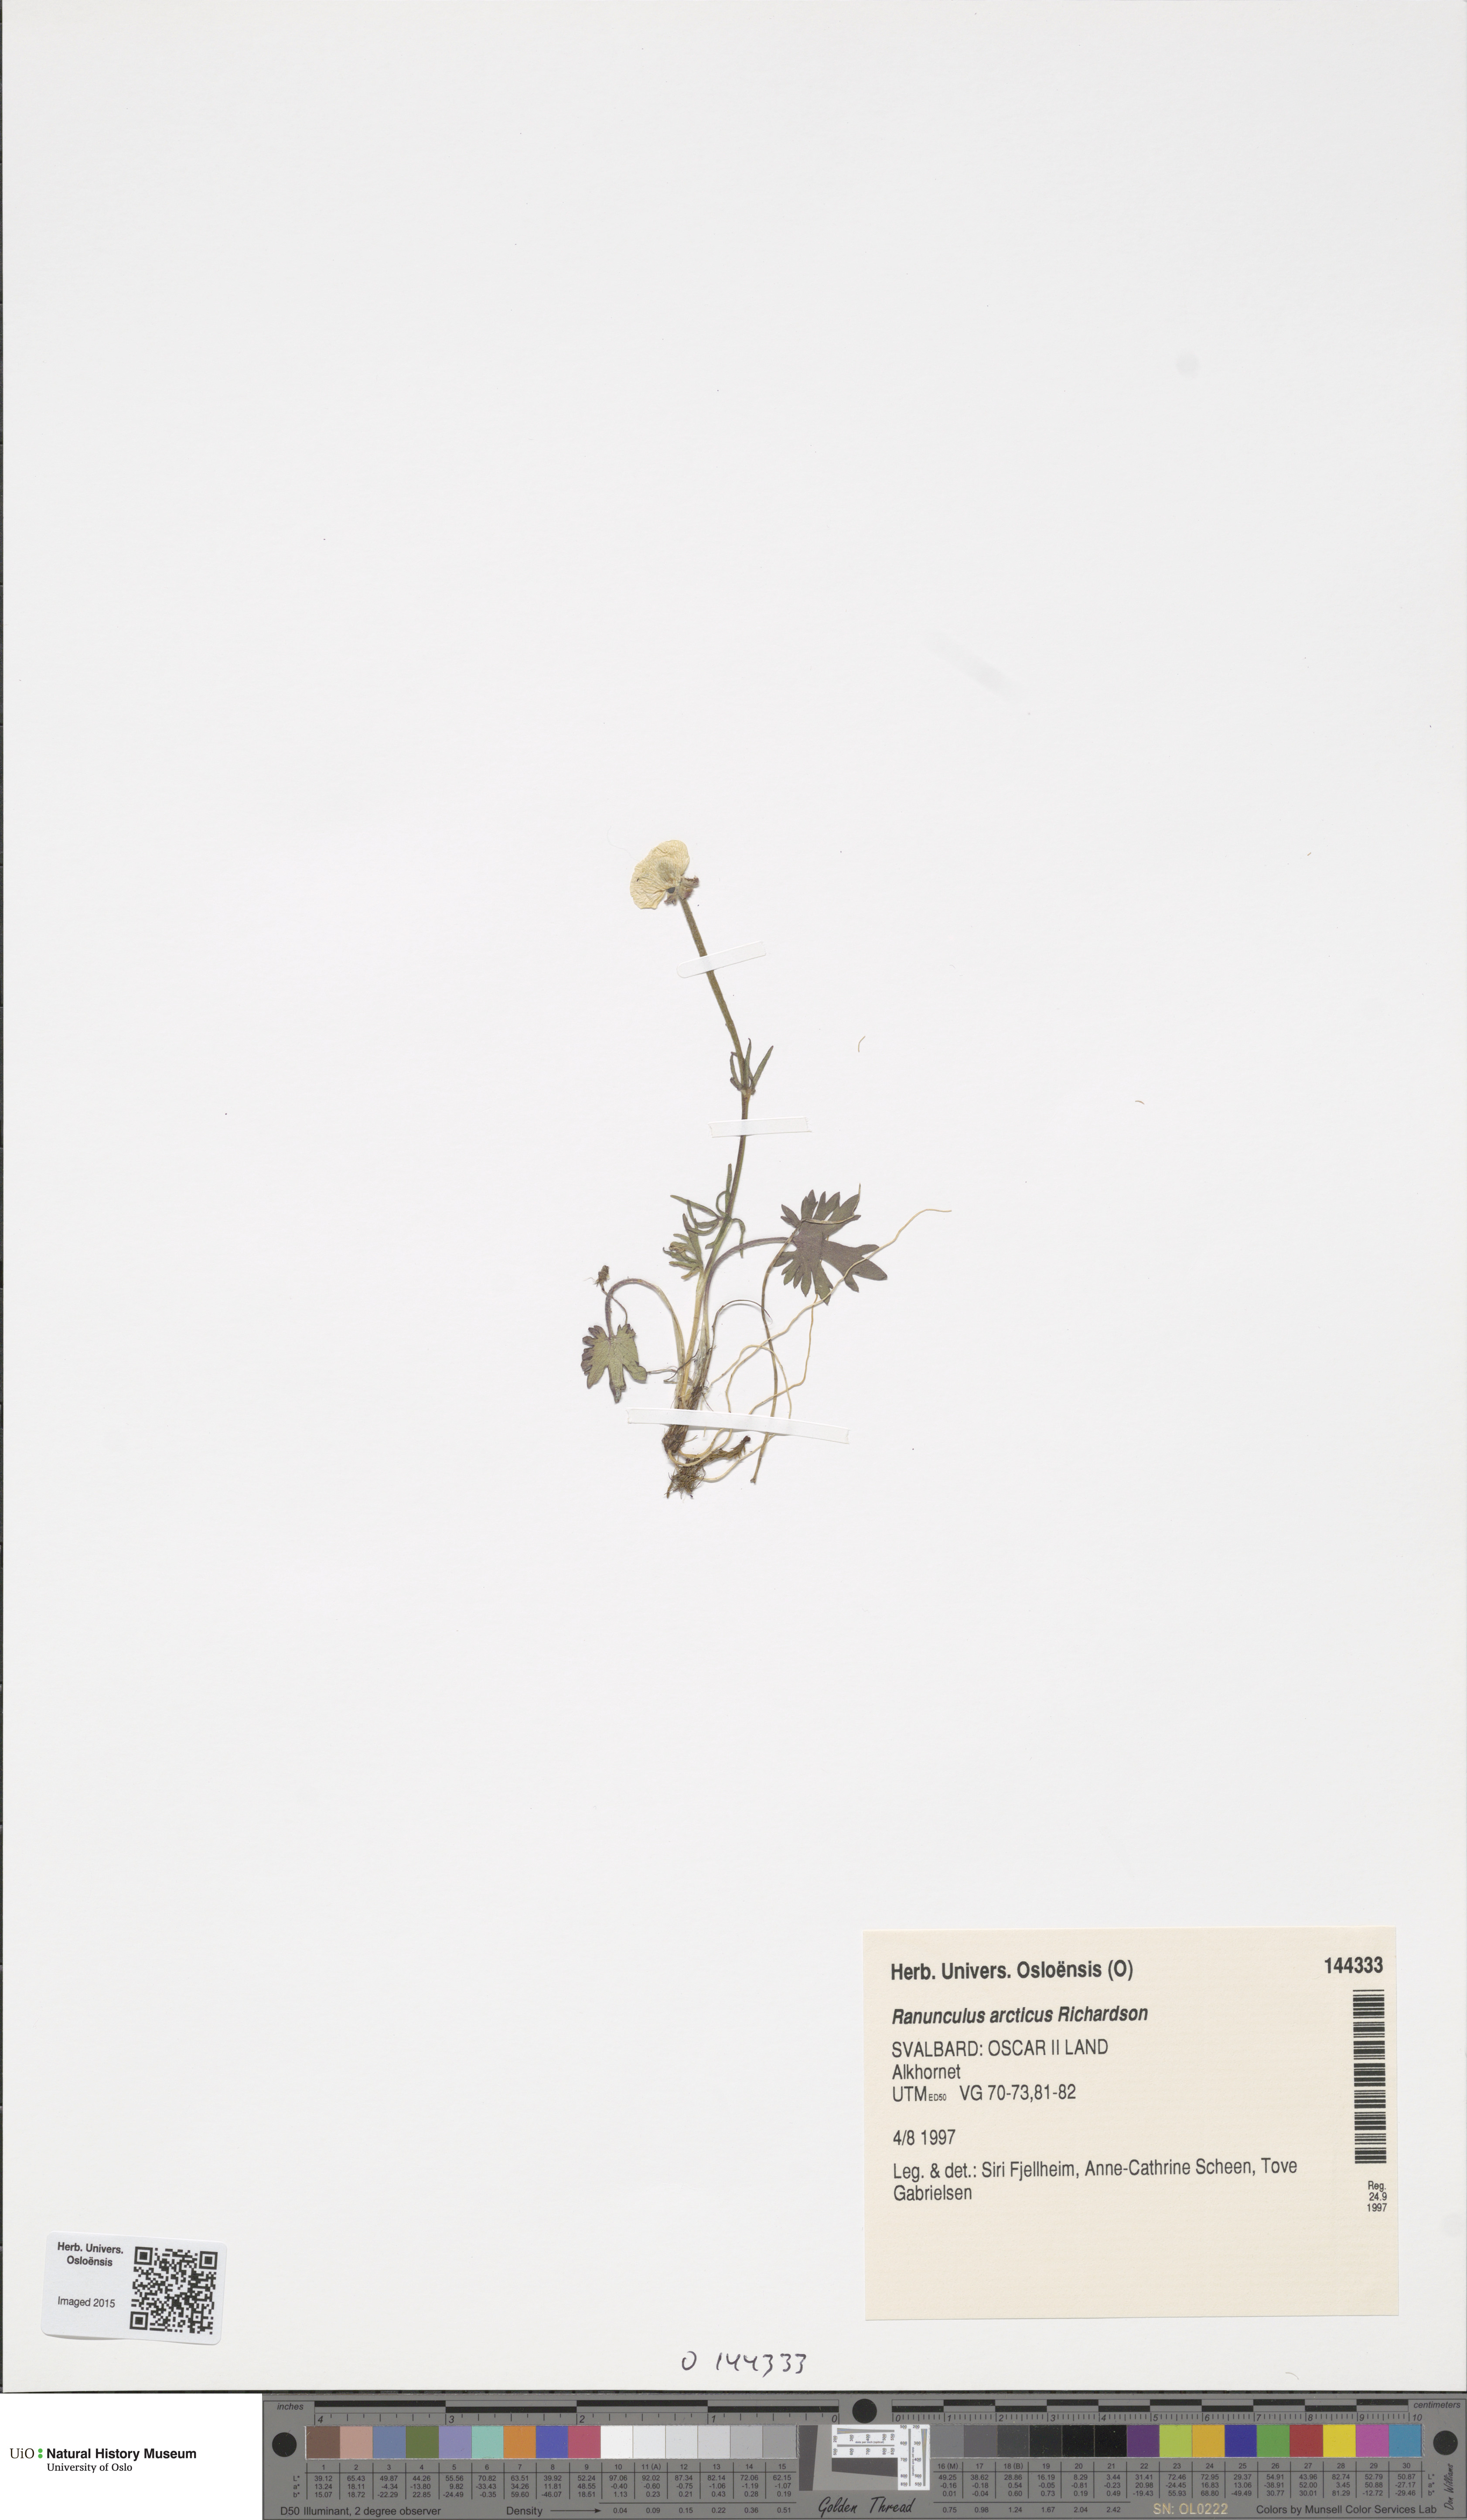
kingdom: Plantae
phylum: Tracheophyta
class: Magnoliopsida
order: Ranunculales
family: Ranunculaceae
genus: Ranunculus
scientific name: Ranunculus arcticus
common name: Bird's-foot buttercup
